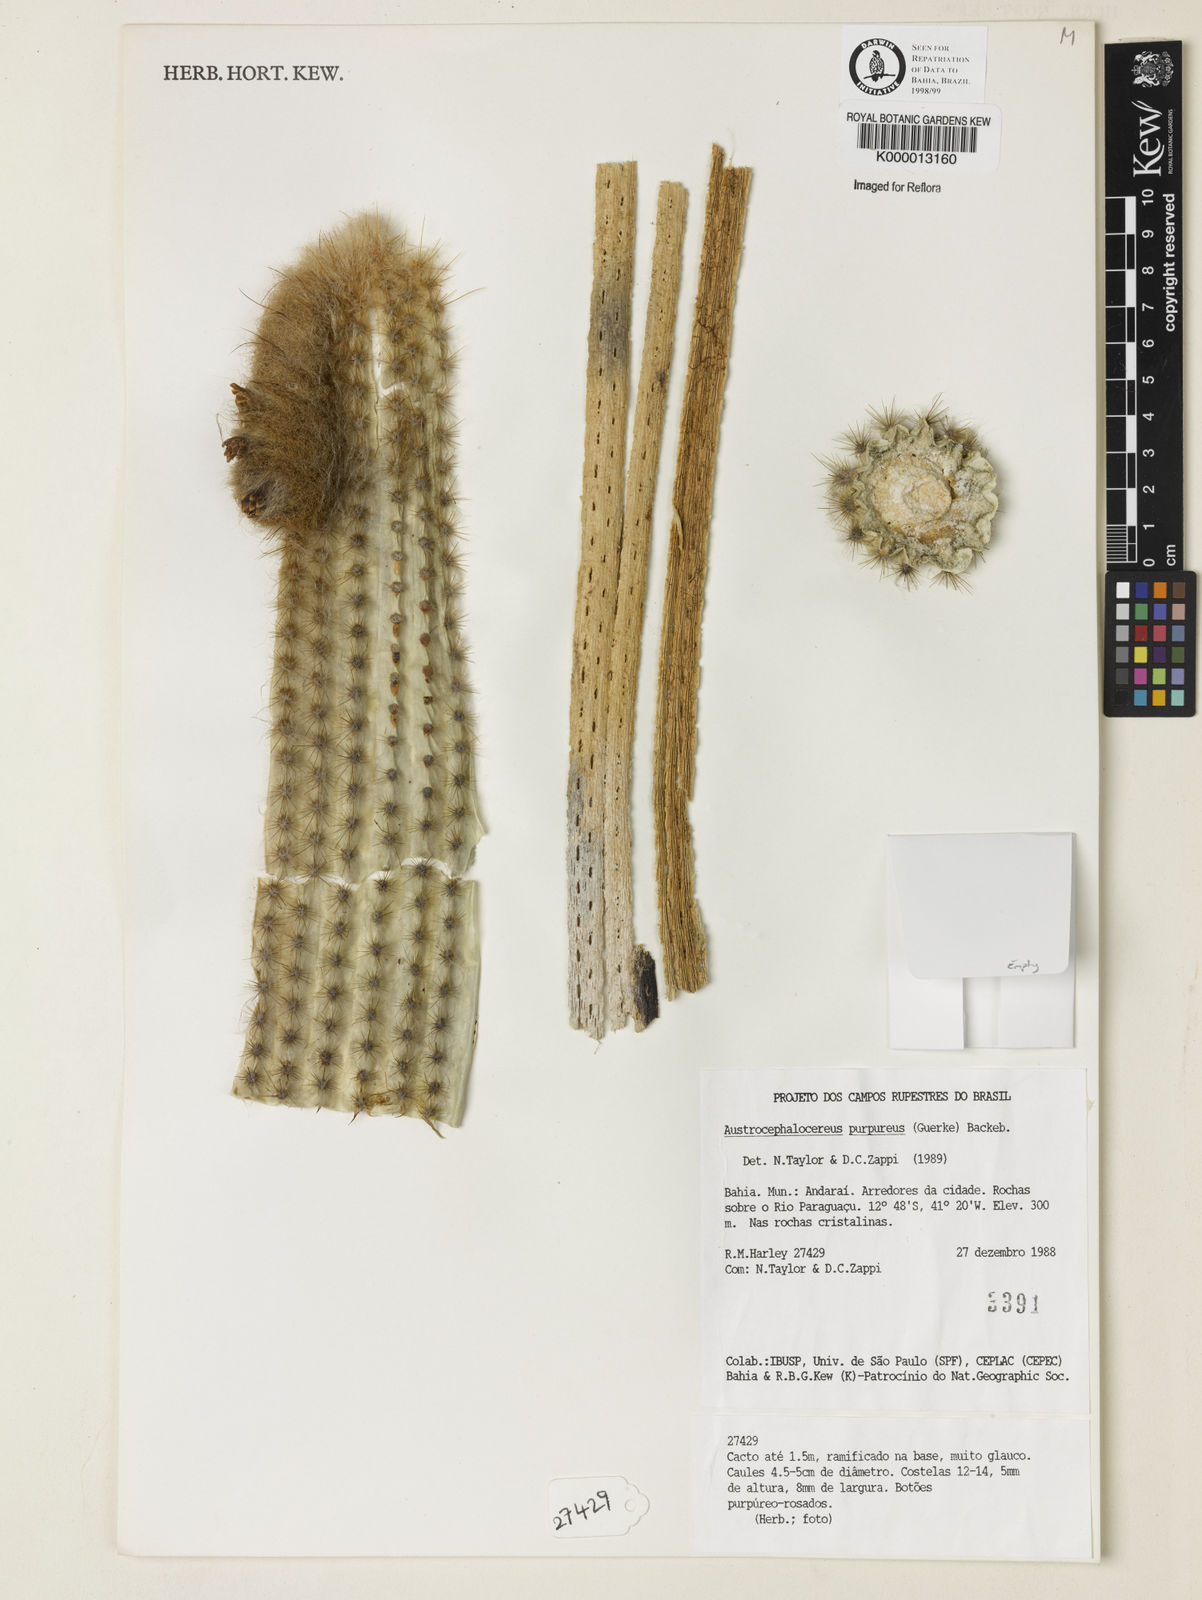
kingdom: Plantae
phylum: Tracheophyta
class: Magnoliopsida
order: Caryophyllales
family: Cactaceae
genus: Micranthocereus
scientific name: Micranthocereus purpureus
